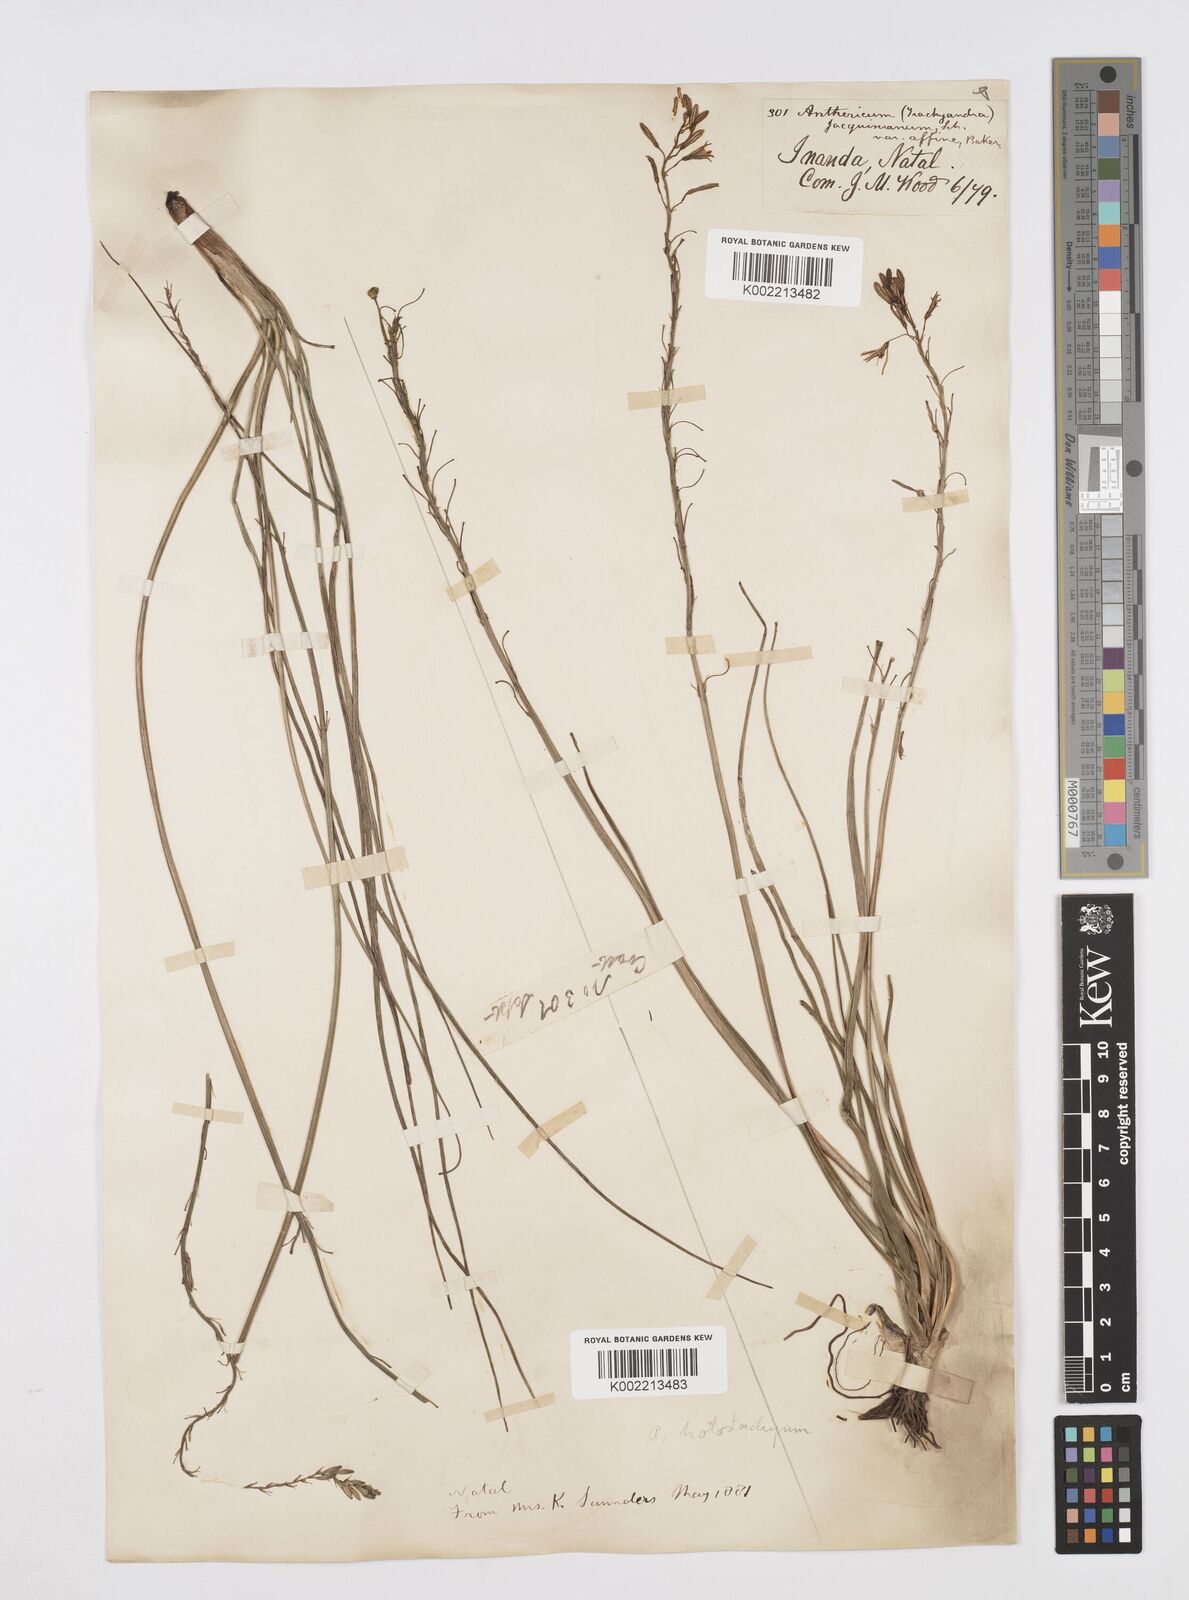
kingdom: Plantae
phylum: Tracheophyta
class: Liliopsida
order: Asparagales
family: Asphodelaceae
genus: Trachyandra
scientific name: Trachyandra saltii
